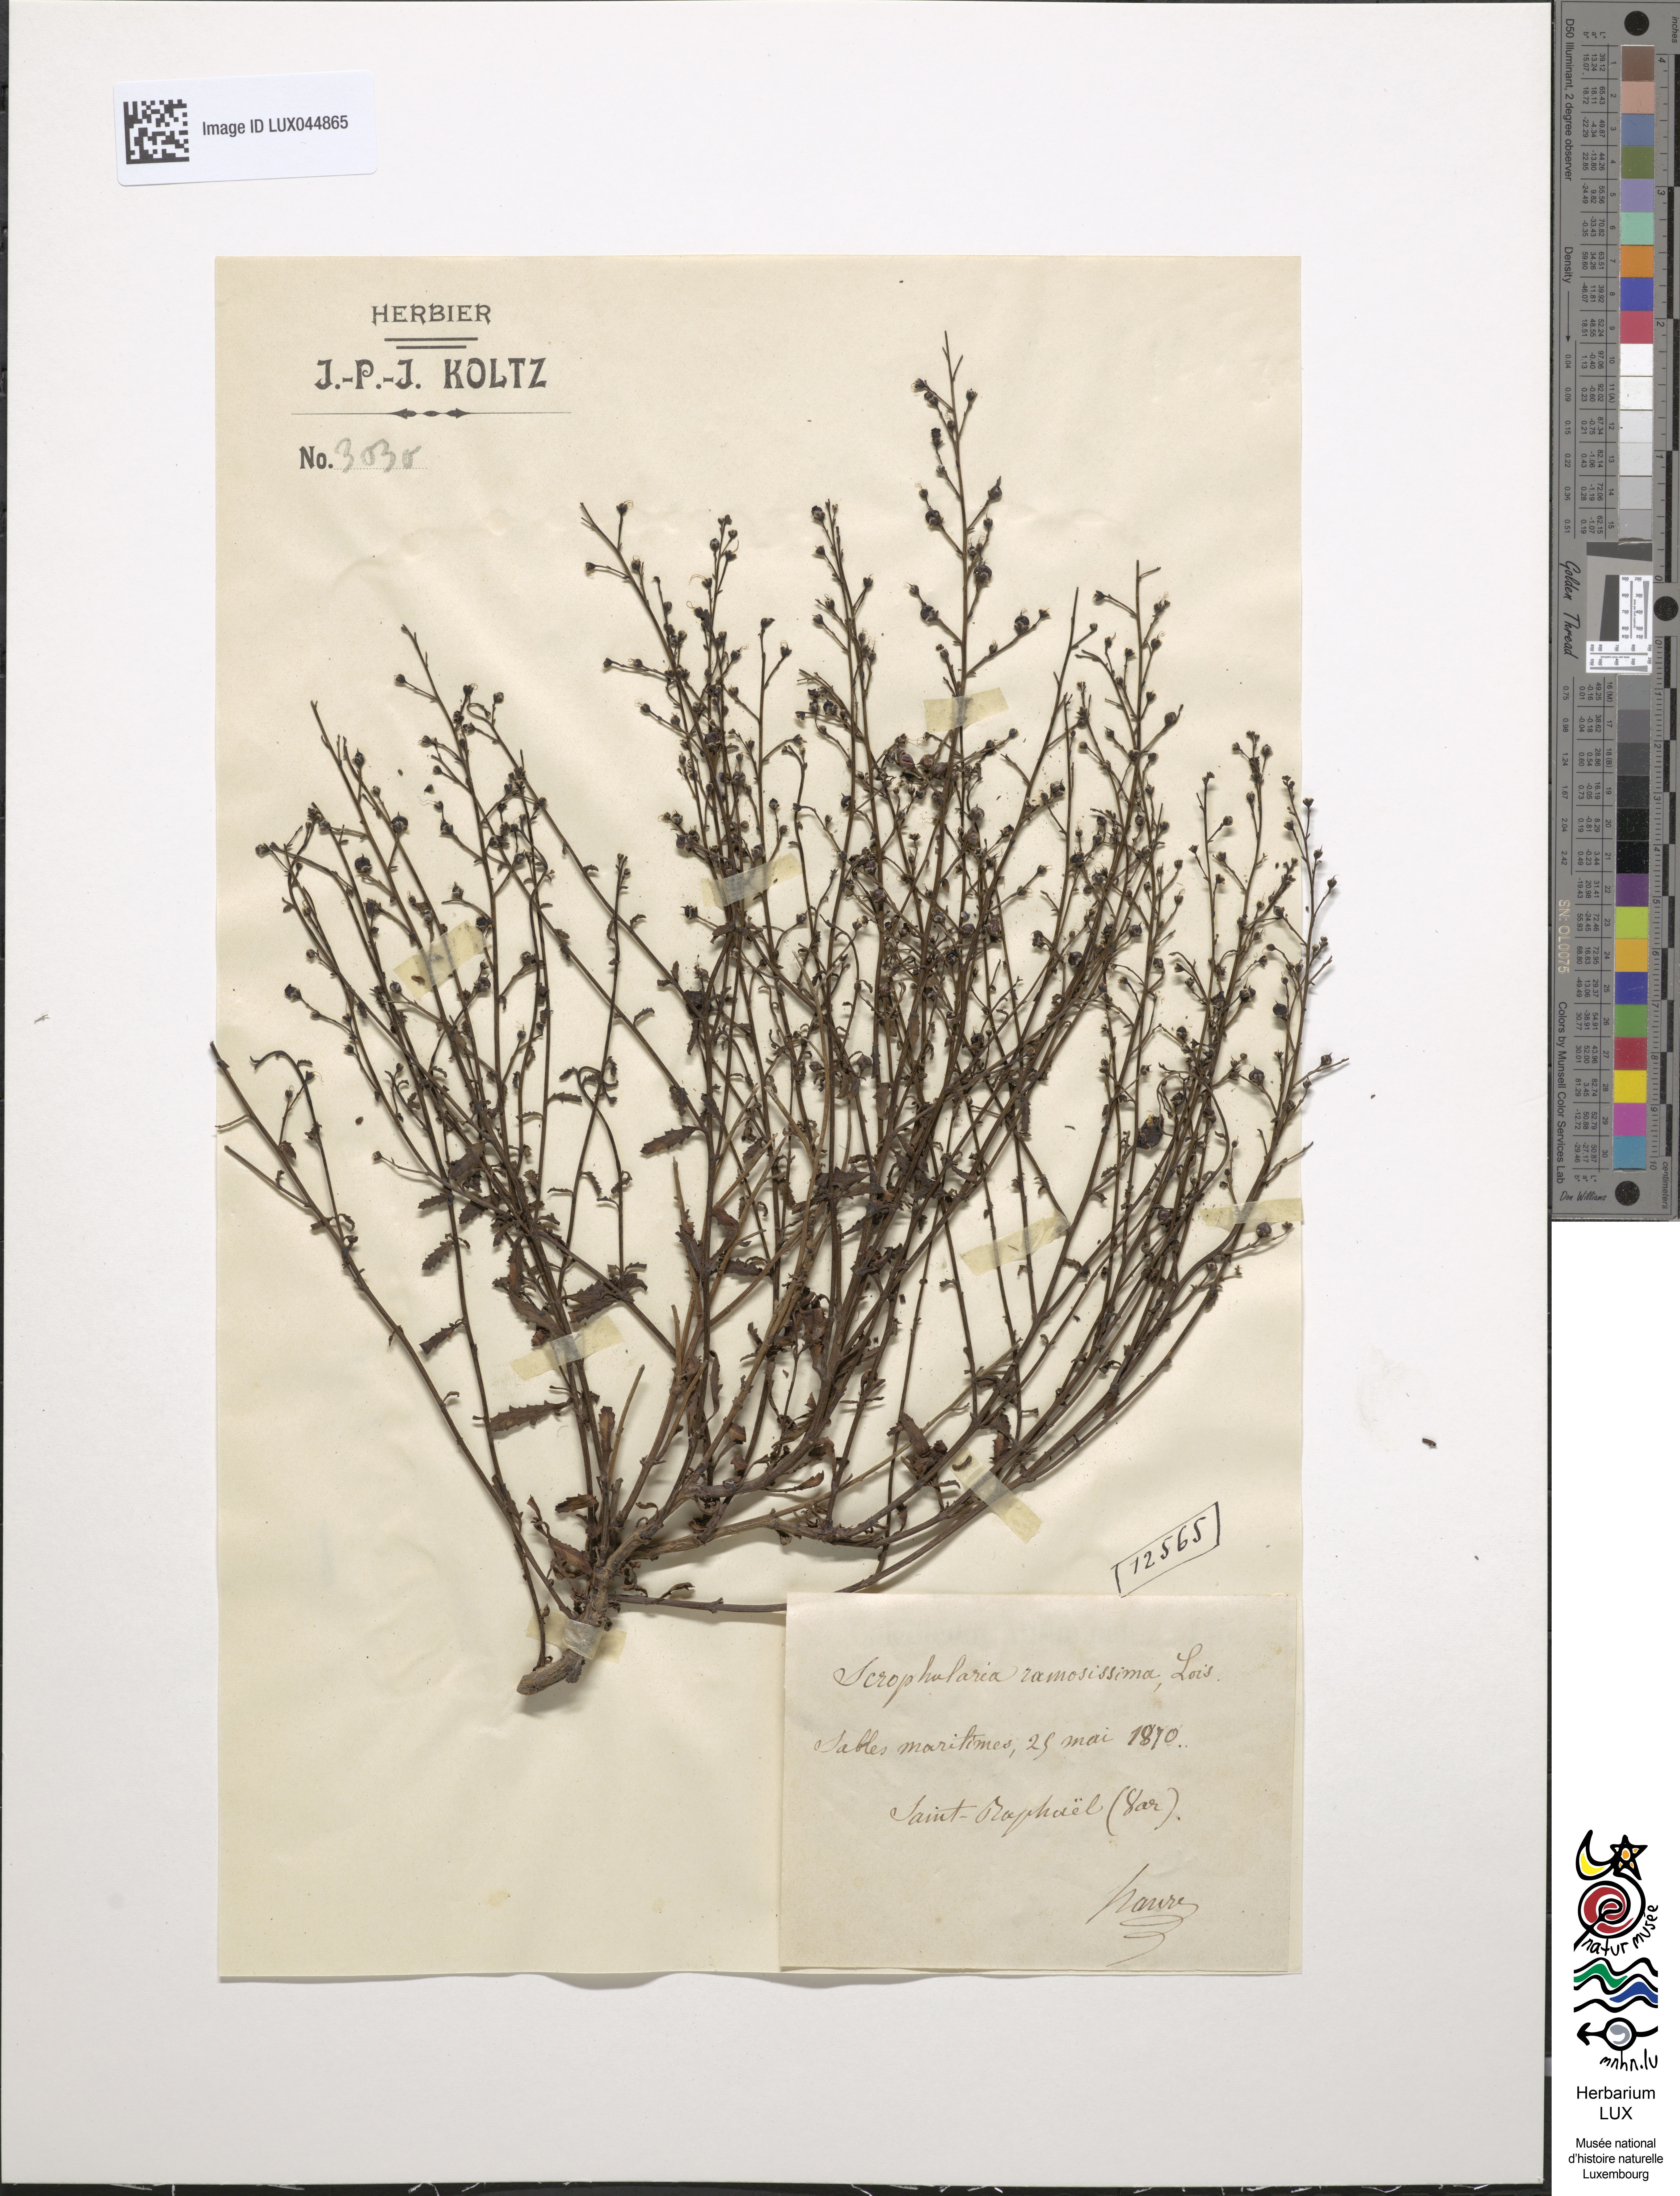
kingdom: Plantae
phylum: Tracheophyta
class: Magnoliopsida
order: Lamiales
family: Scrophulariaceae
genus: Scrophularia
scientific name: Scrophularia canina
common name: French figwort
